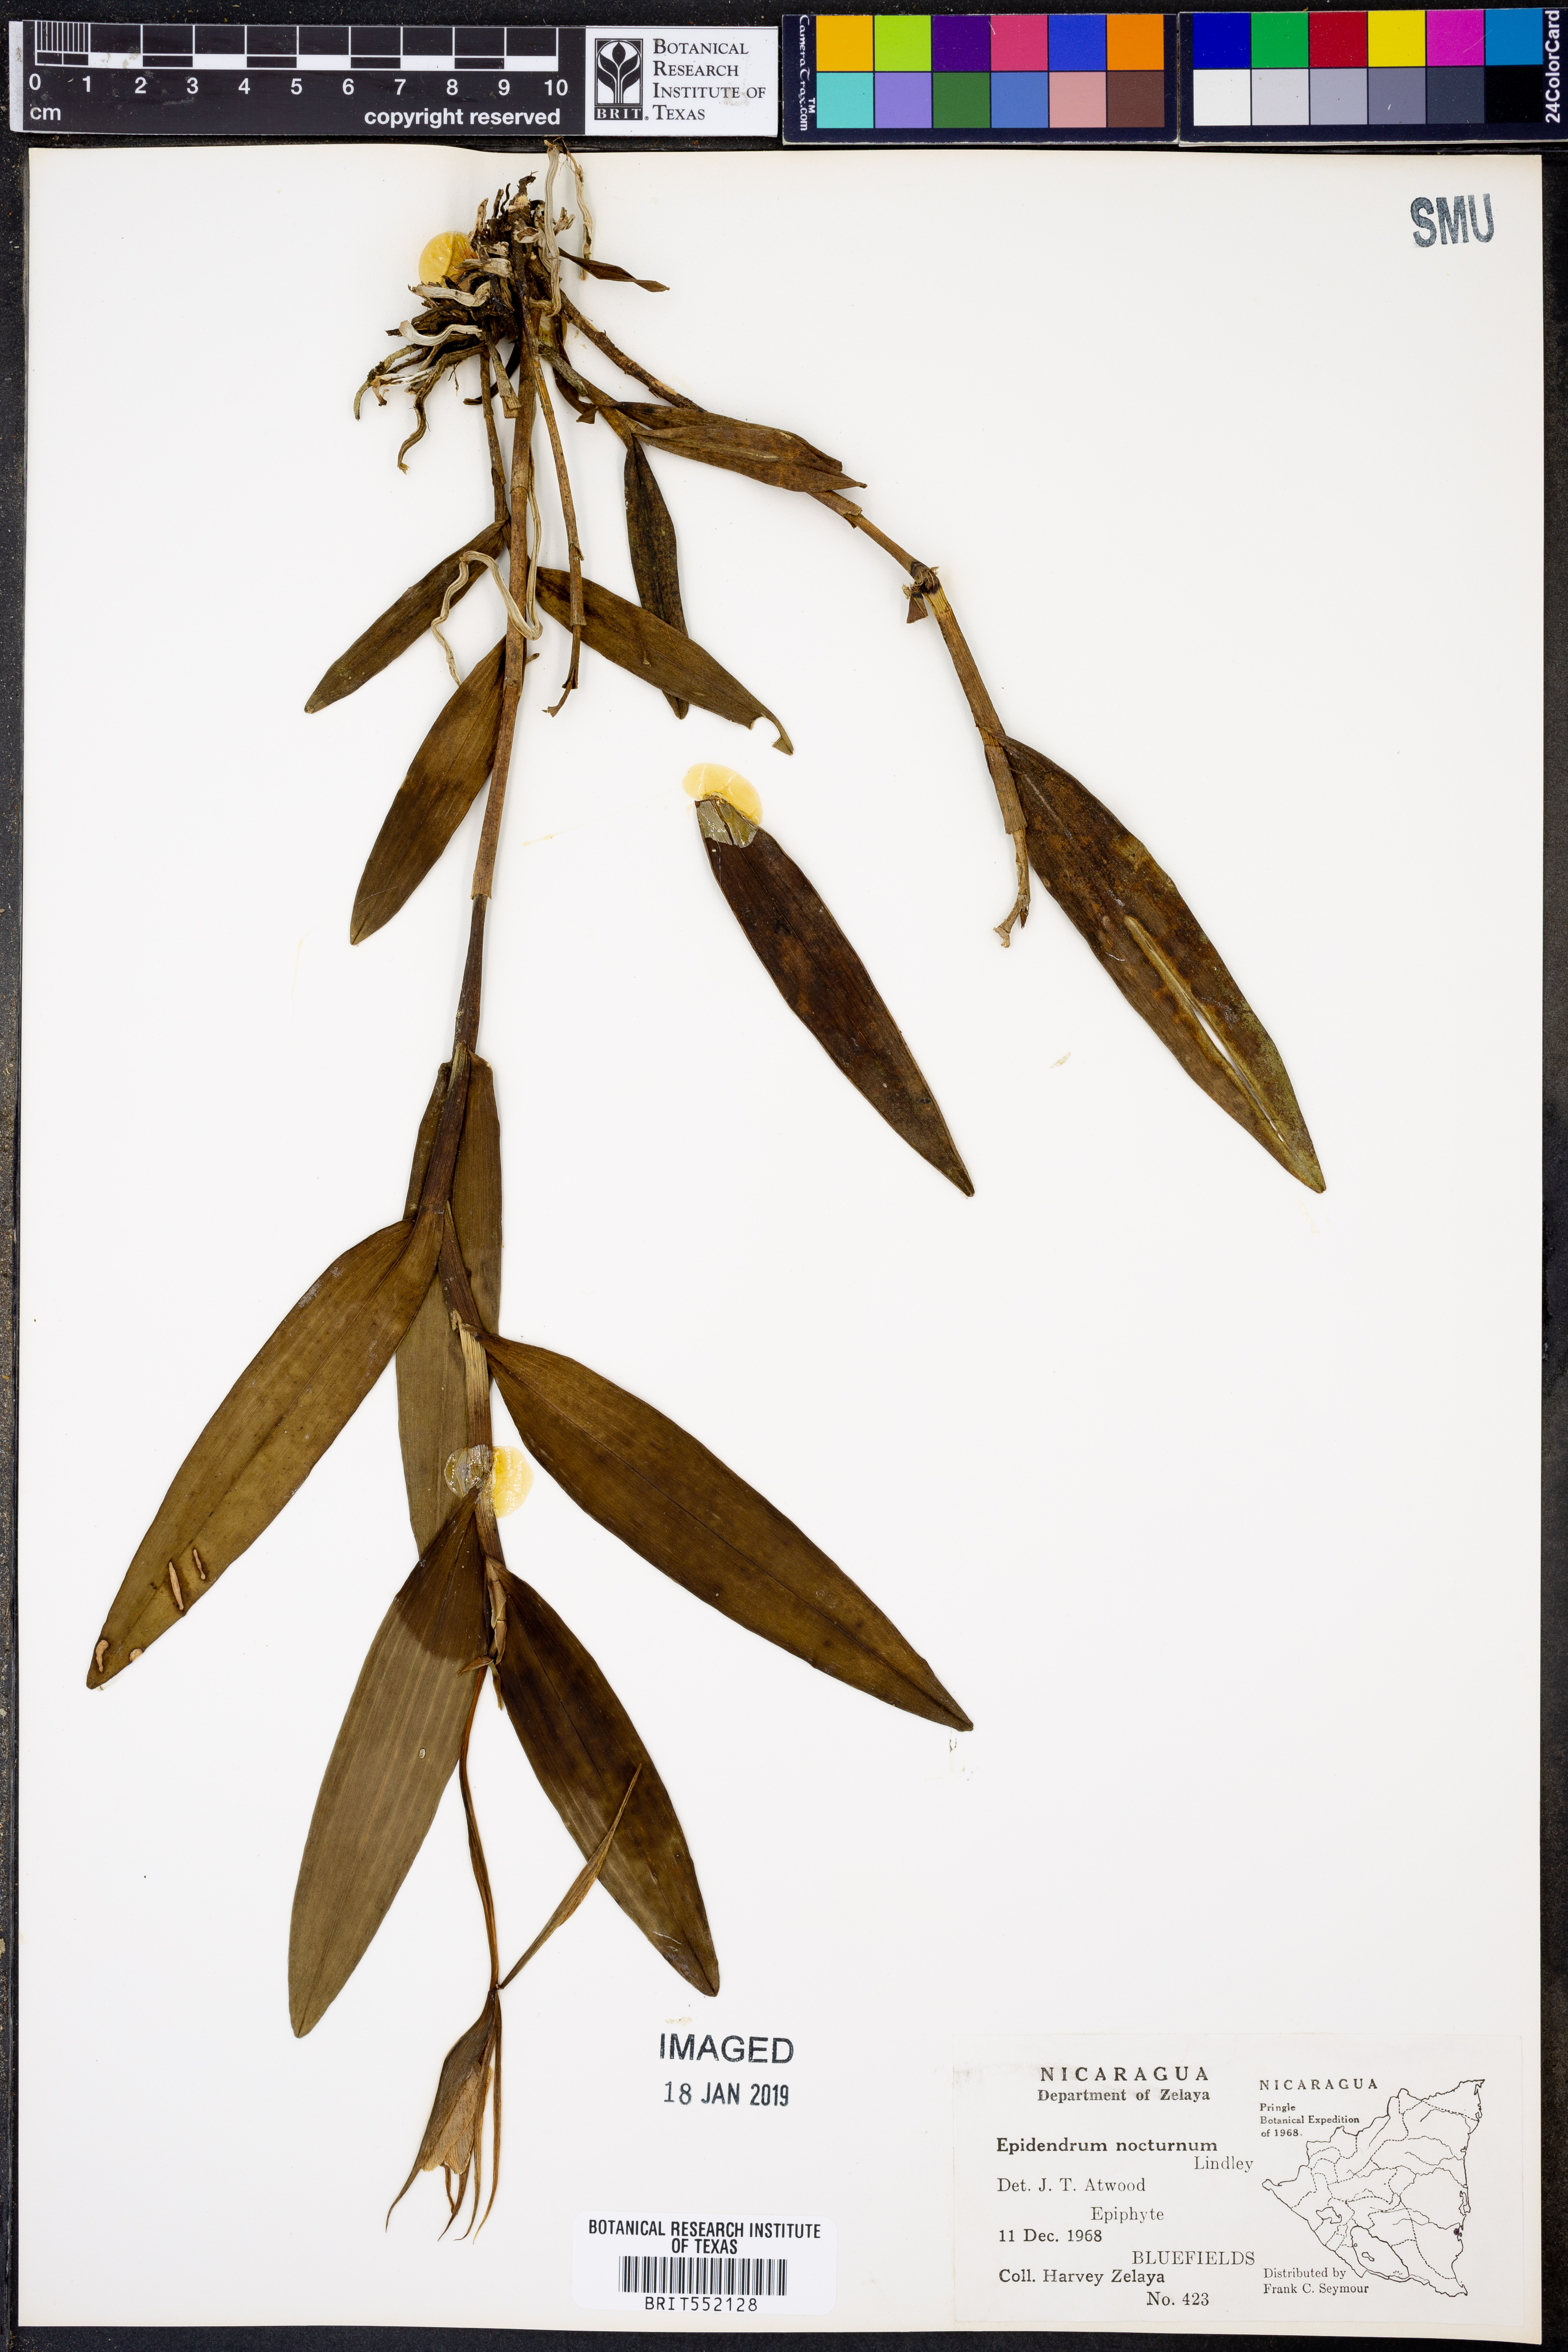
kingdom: Plantae
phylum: Tracheophyta
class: Liliopsida
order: Asparagales
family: Orchidaceae
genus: Epidendrum
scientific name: Epidendrum nocturnum
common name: Night scented orchid
